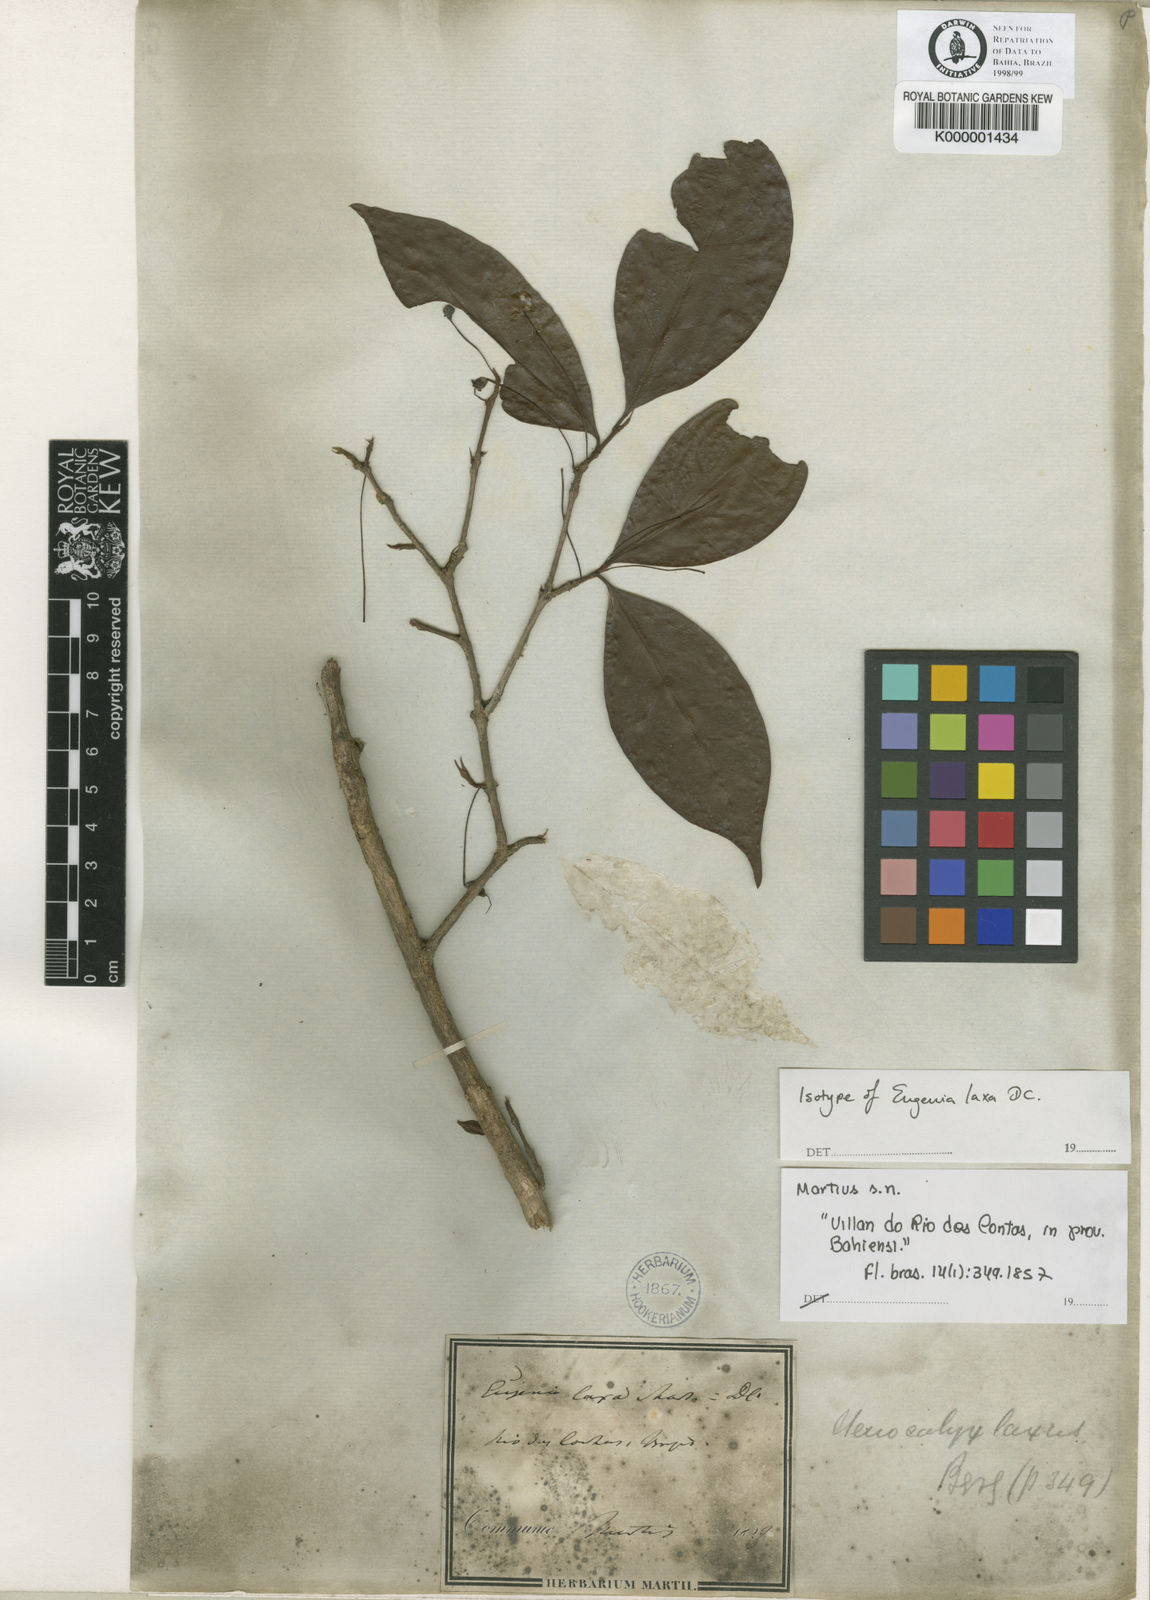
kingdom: Plantae
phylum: Tracheophyta
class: Magnoliopsida
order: Myrtales
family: Myrtaceae
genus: Eugenia
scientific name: Eugenia laxa
